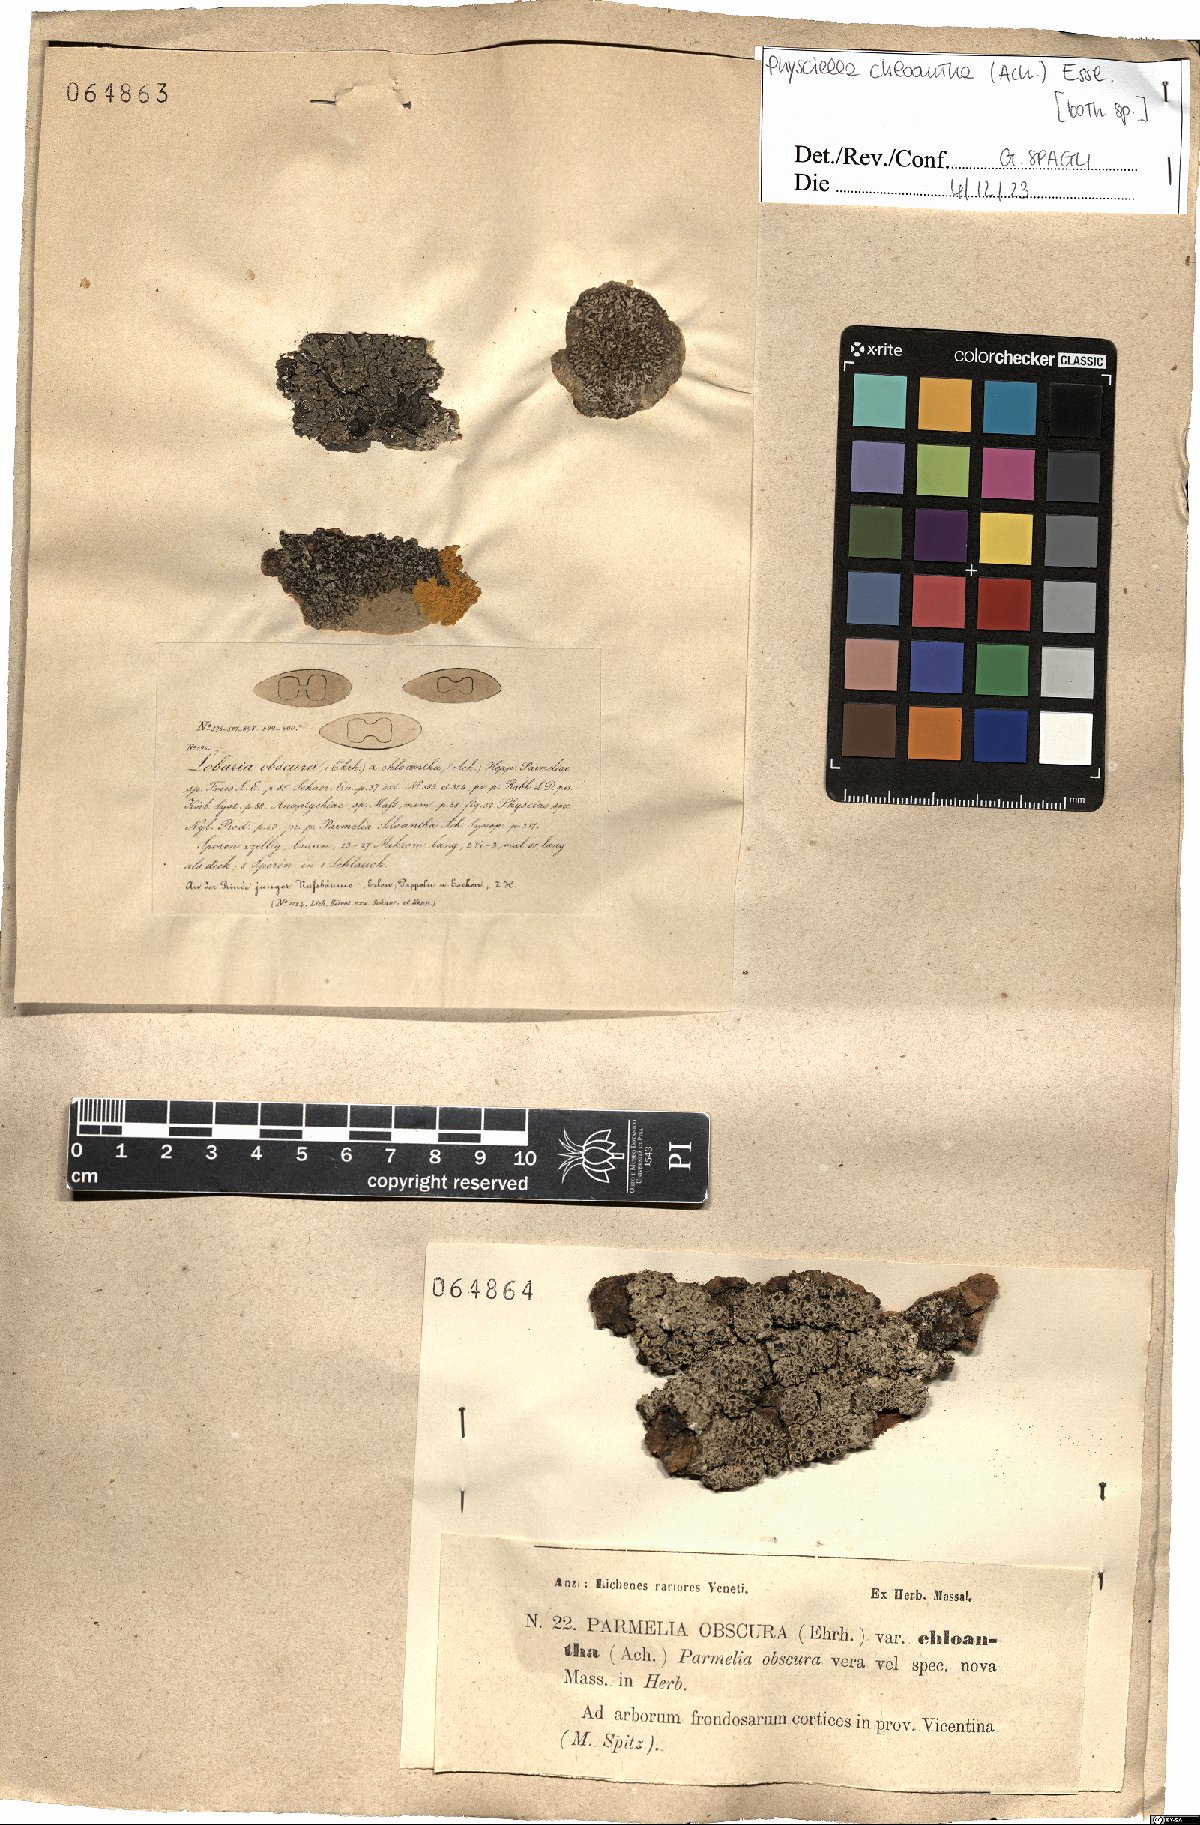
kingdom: Fungi
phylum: Ascomycota
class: Lecanoromycetes
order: Caliciales
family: Physciaceae
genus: Physciella
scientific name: Physciella chloantha
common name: Cryptic rosette lichen
